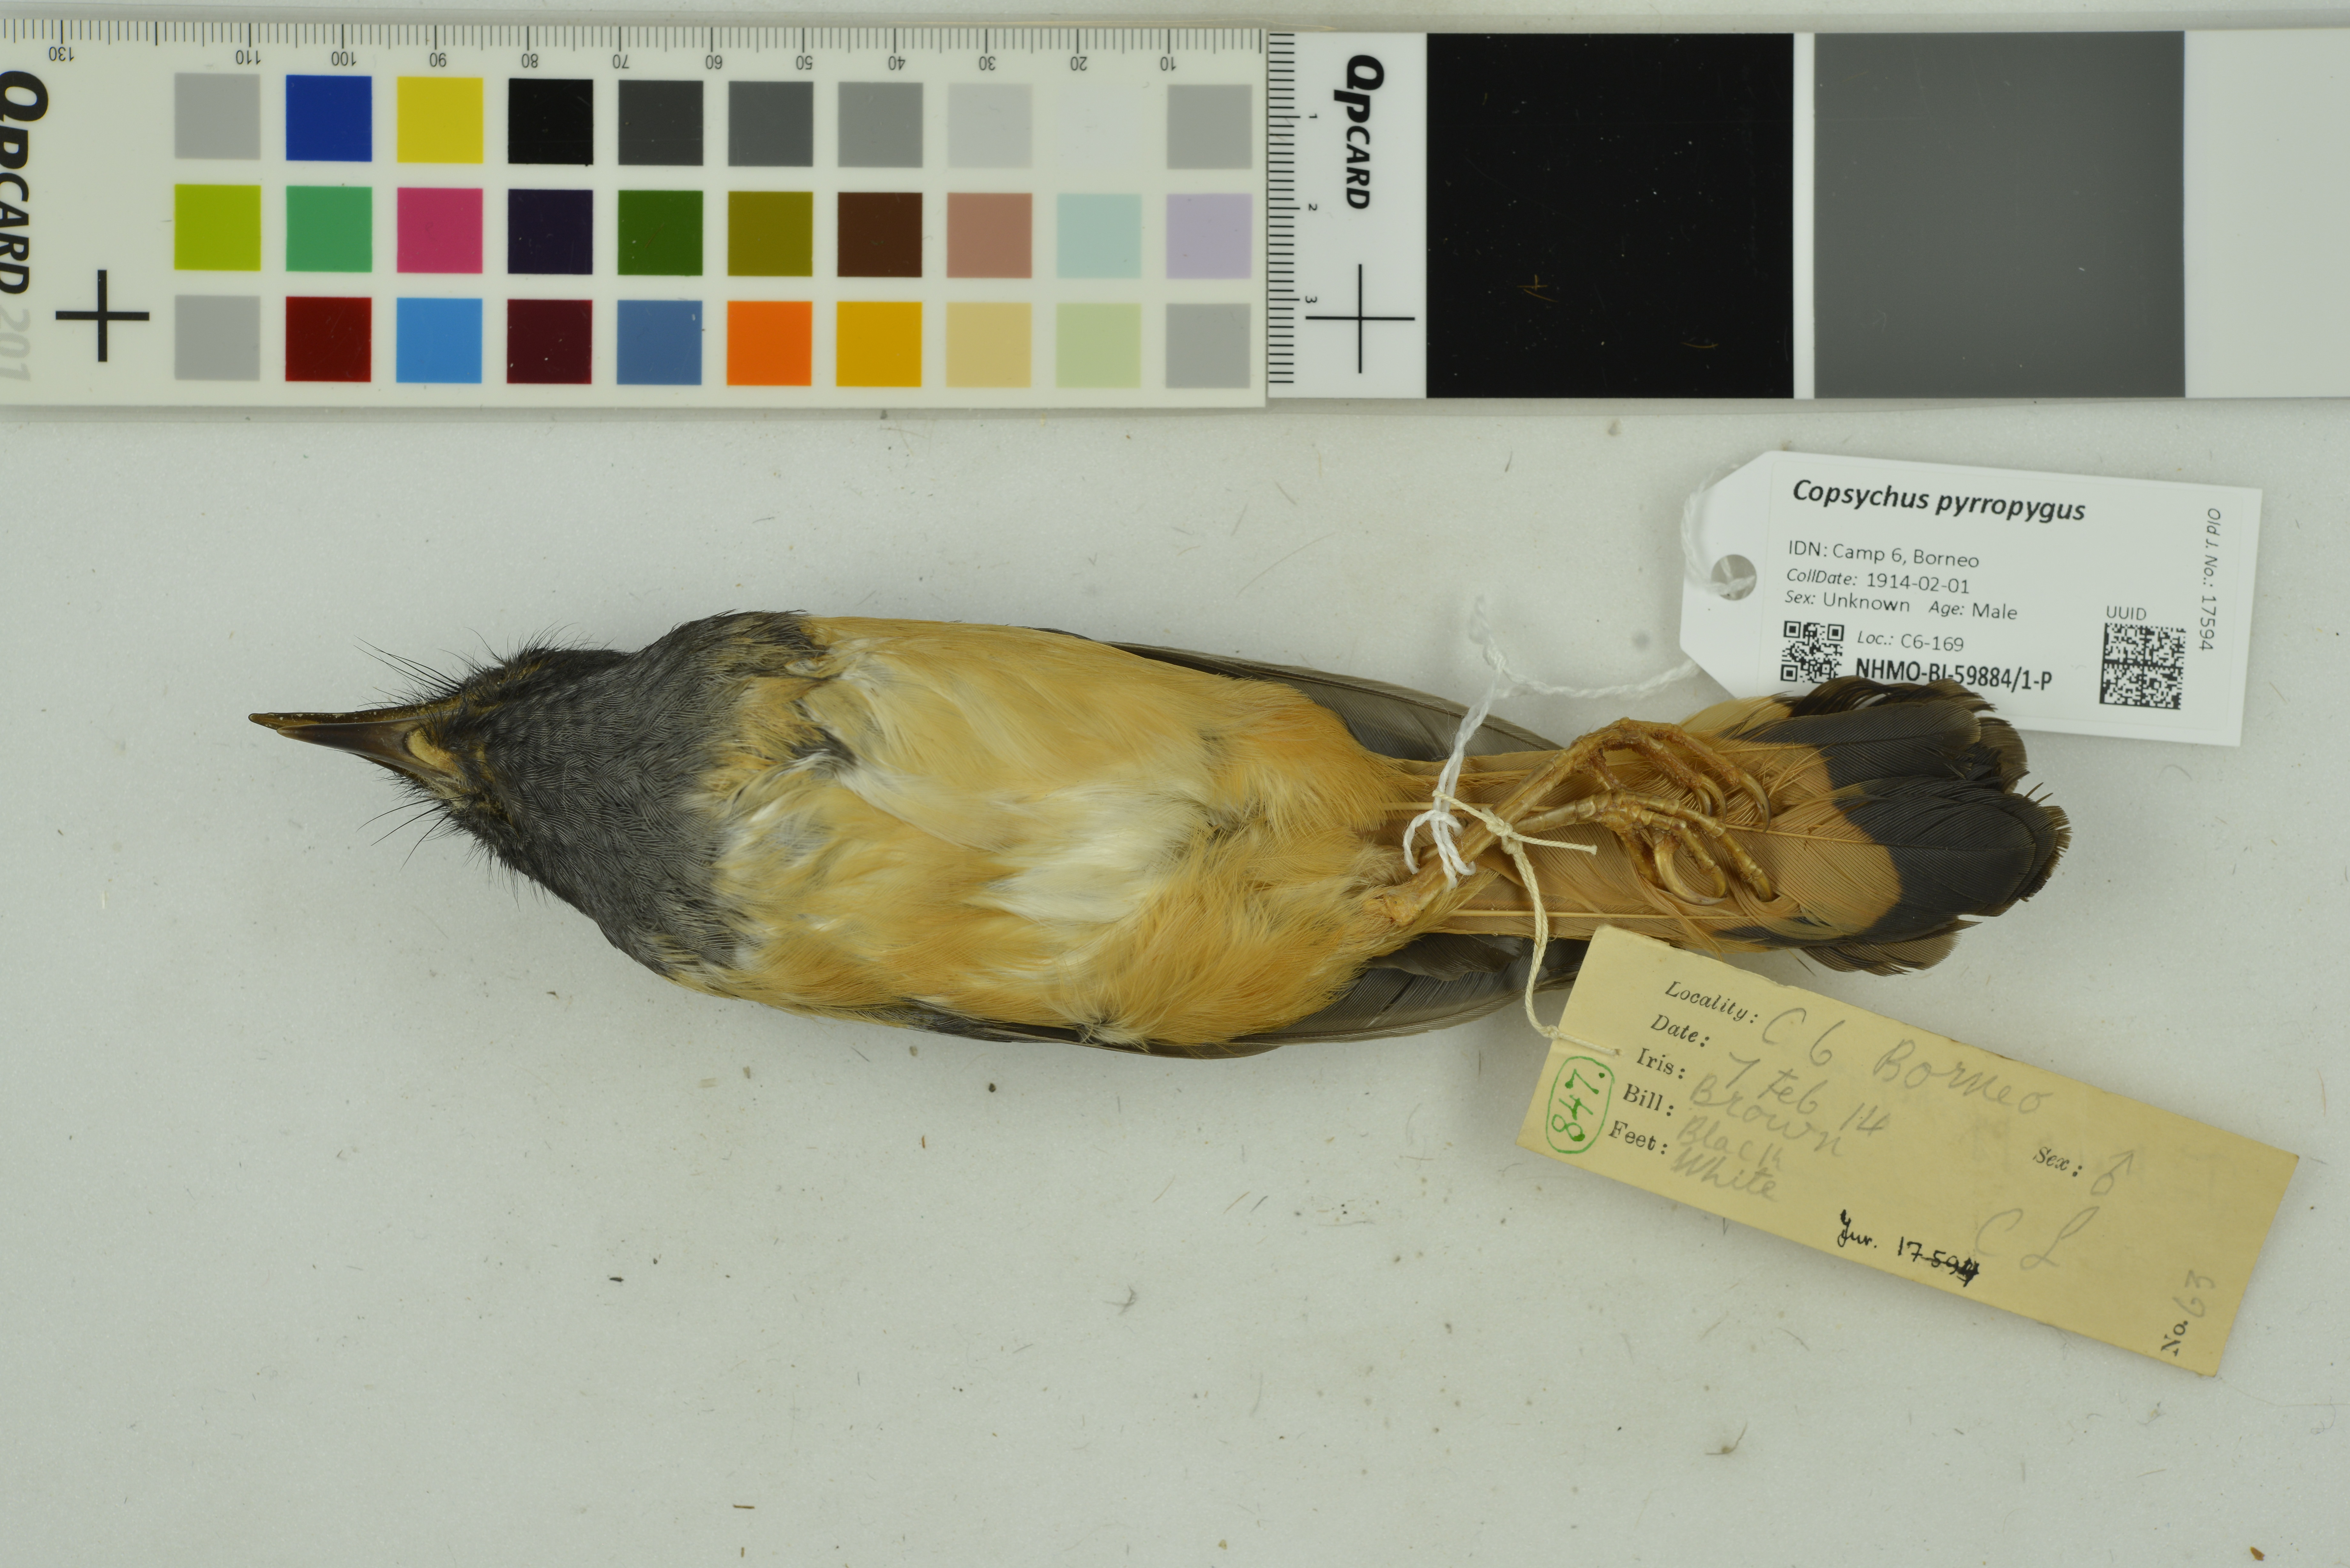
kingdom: Animalia
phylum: Chordata
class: Aves
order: Passeriformes
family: Muscicapidae
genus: Trichixos
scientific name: Trichixos pyrropygus
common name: Rufous-tailed shama
